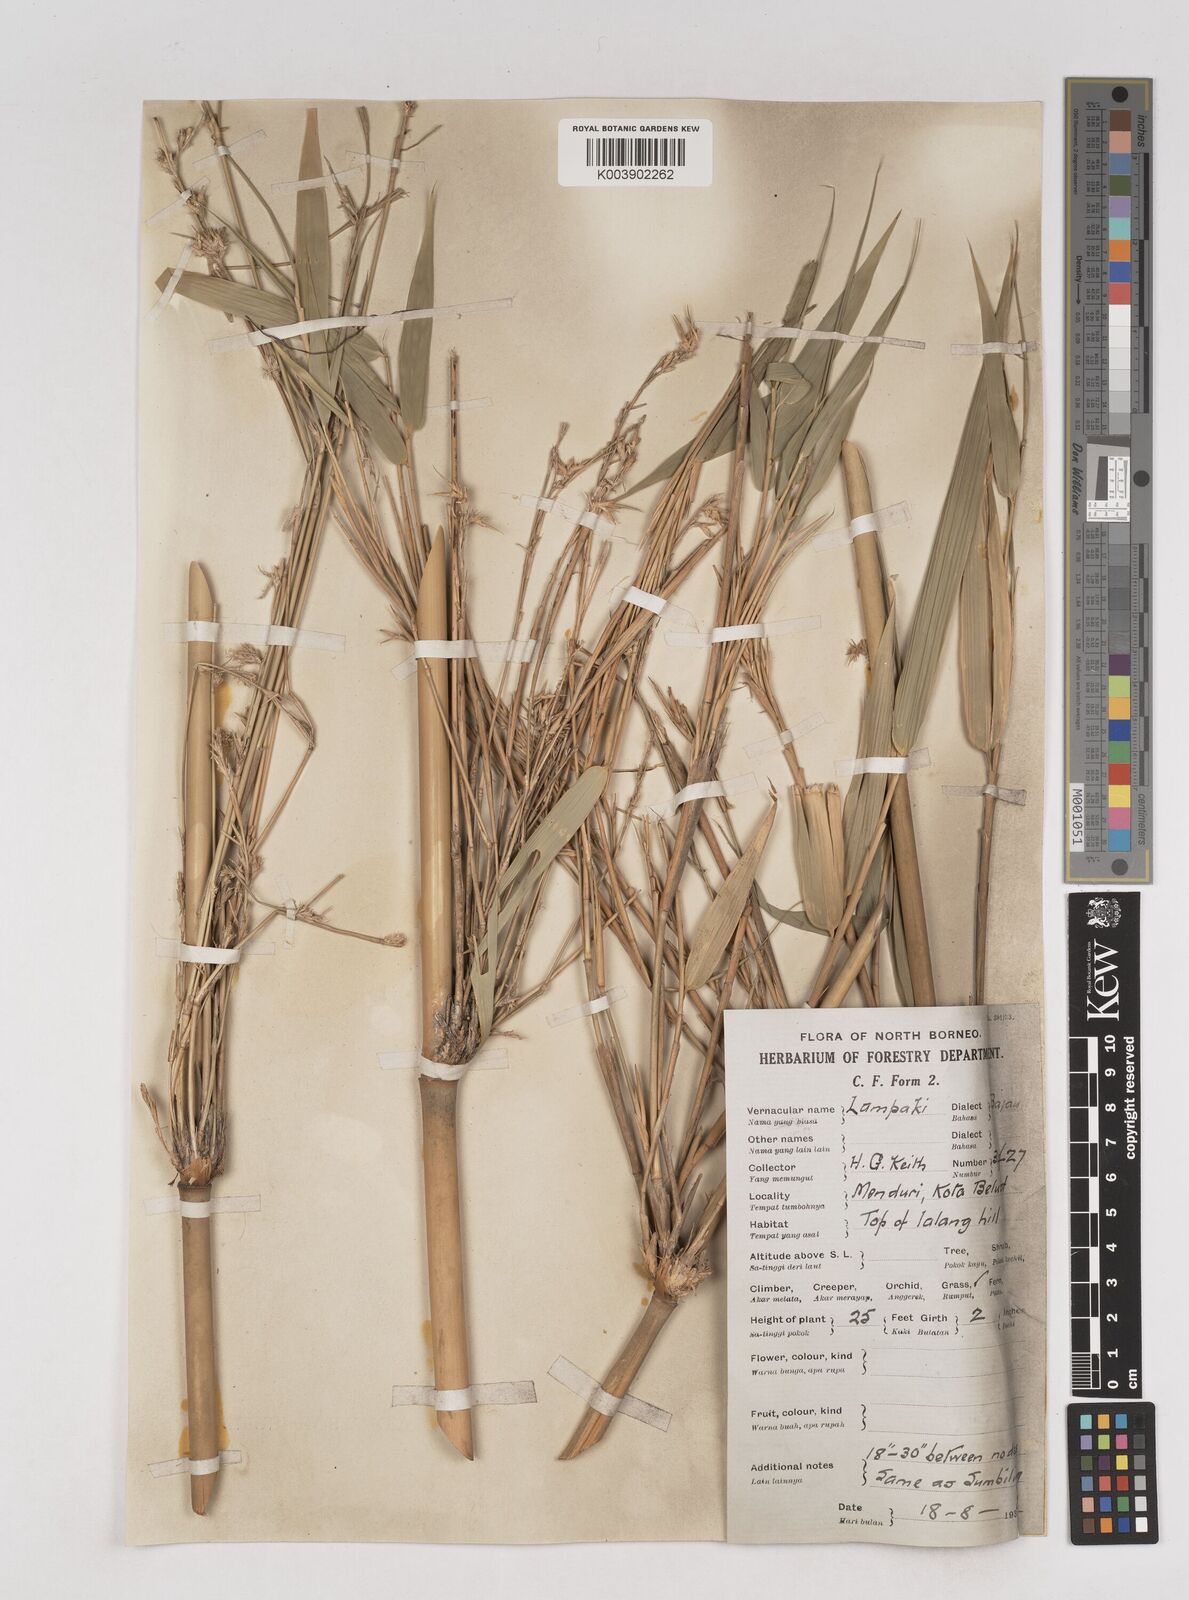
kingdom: Plantae
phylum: Tracheophyta
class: Liliopsida
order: Poales
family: Poaceae
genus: Schizostachyum
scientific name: Schizostachyum lima
